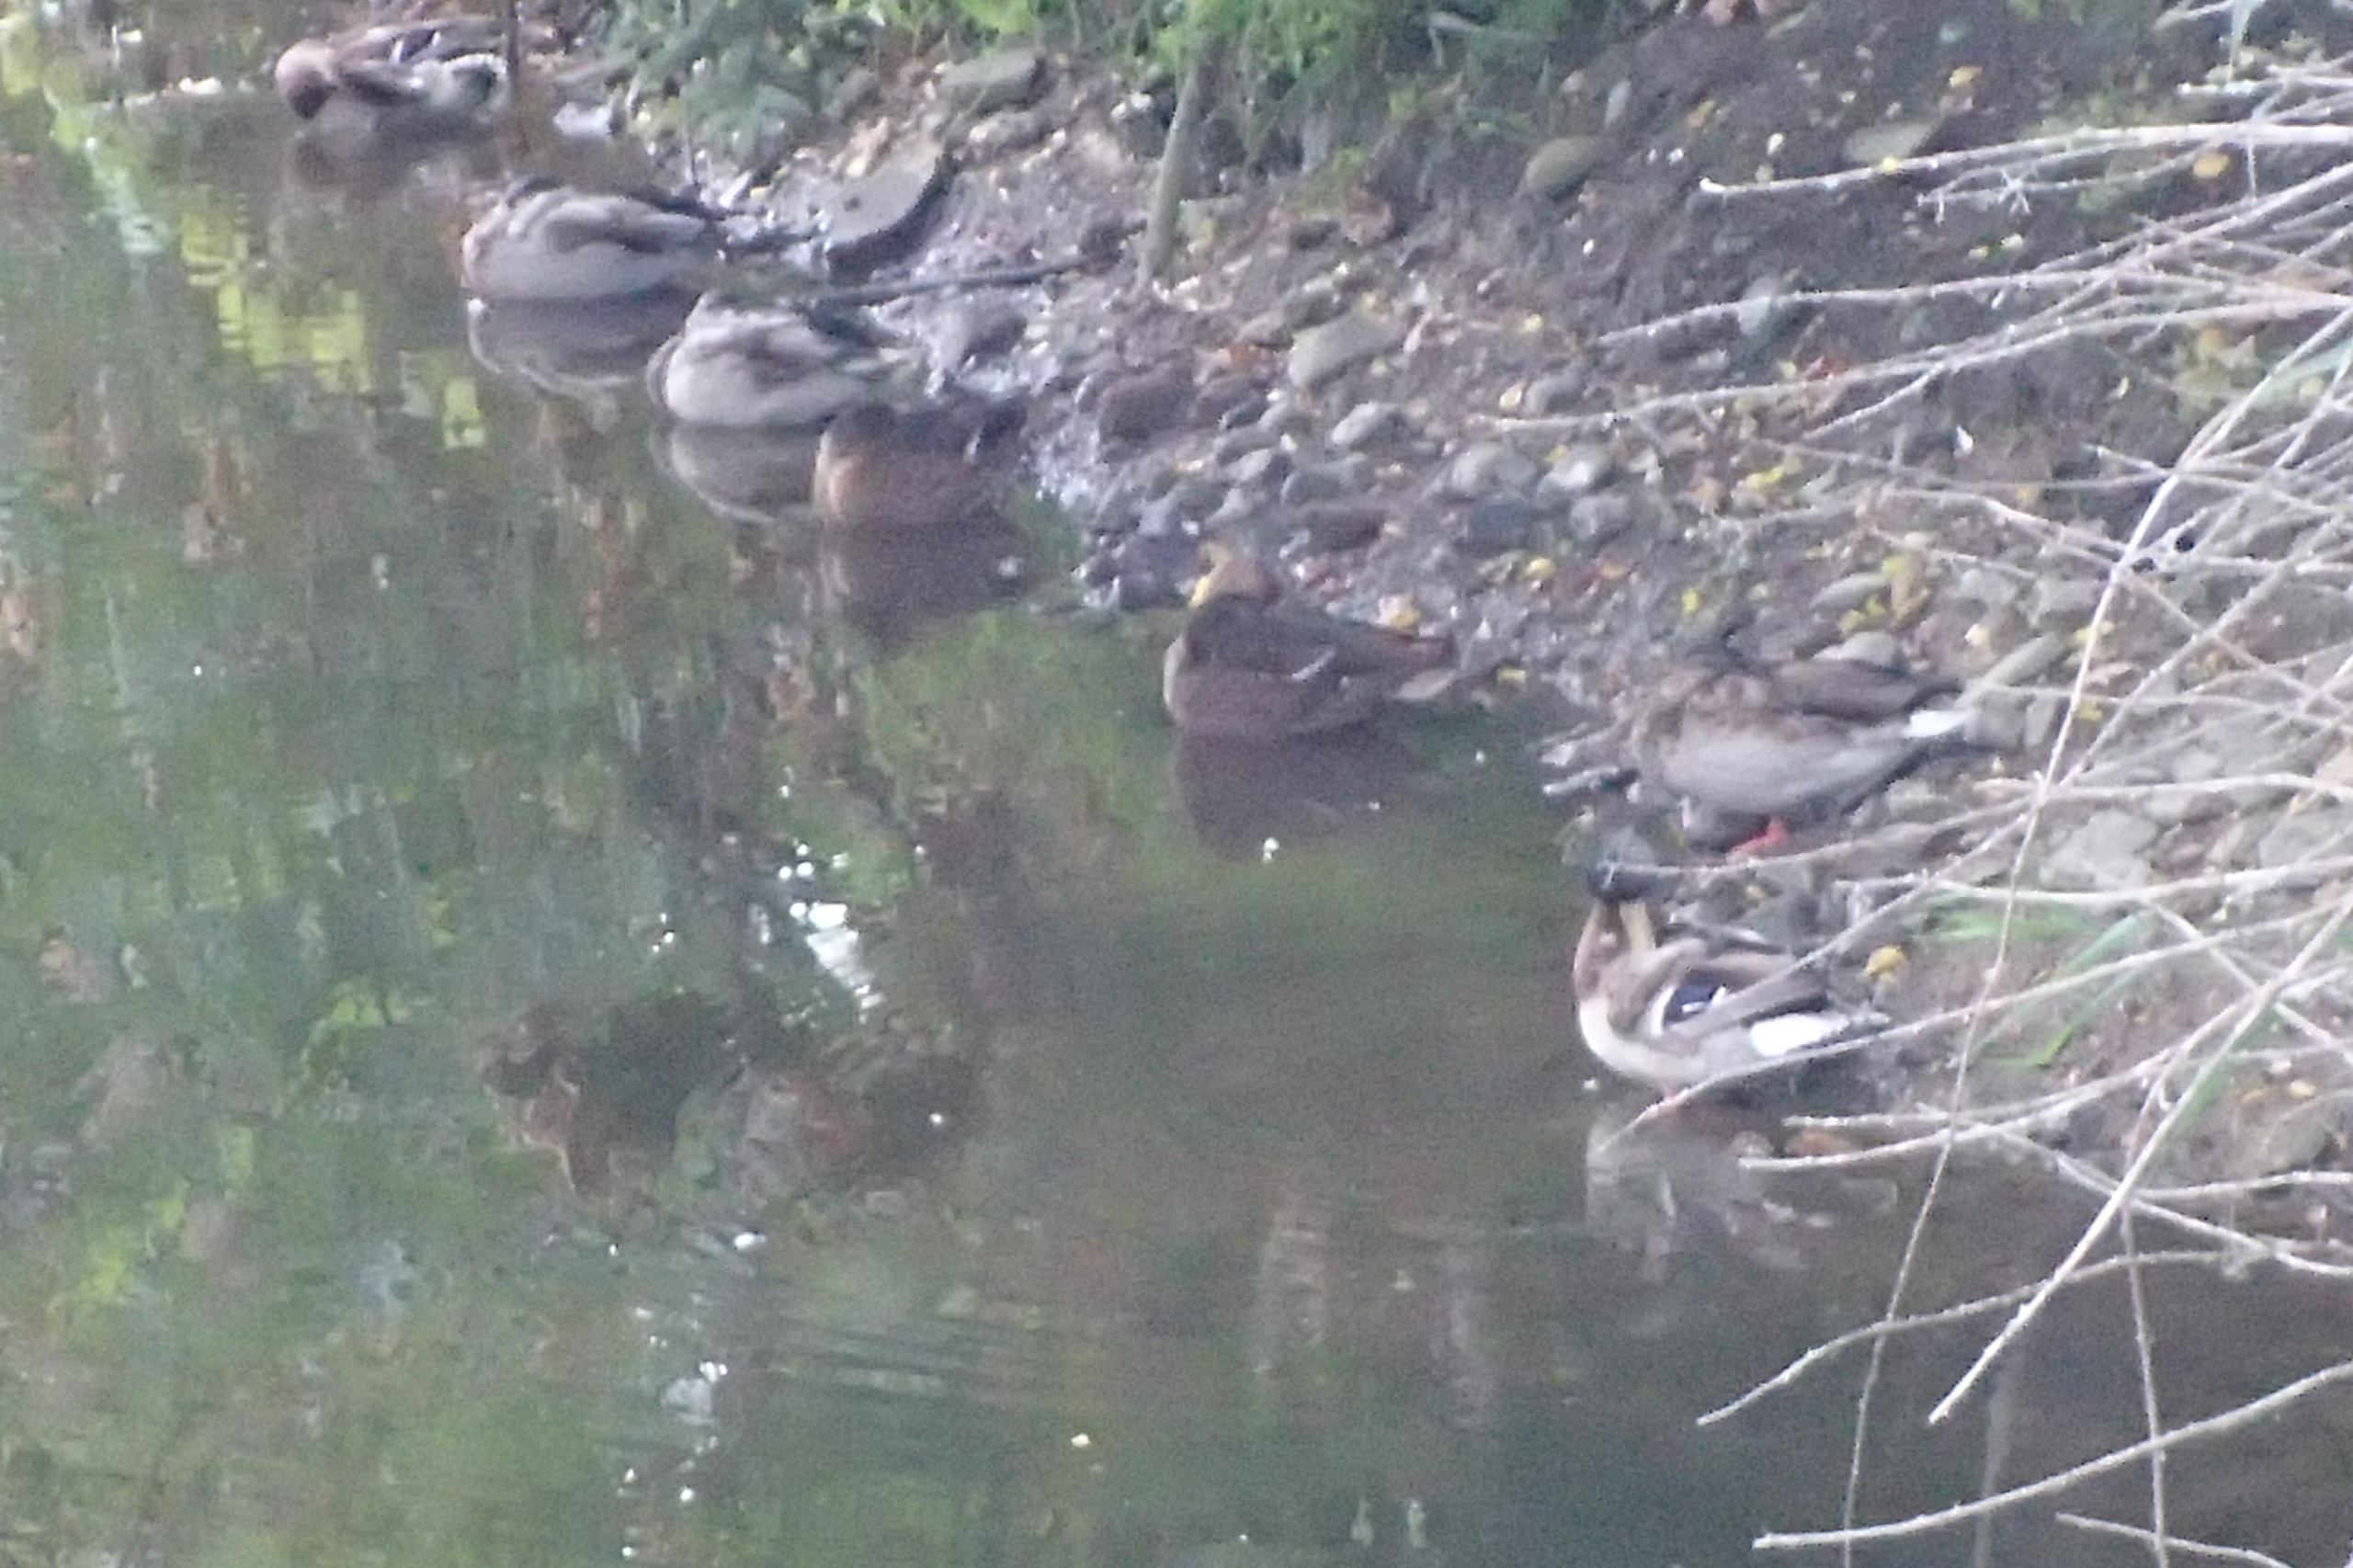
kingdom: Animalia
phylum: Chordata
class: Aves
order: Anseriformes
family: Anatidae
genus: Anas
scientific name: Anas platyrhynchos
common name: Gråand
